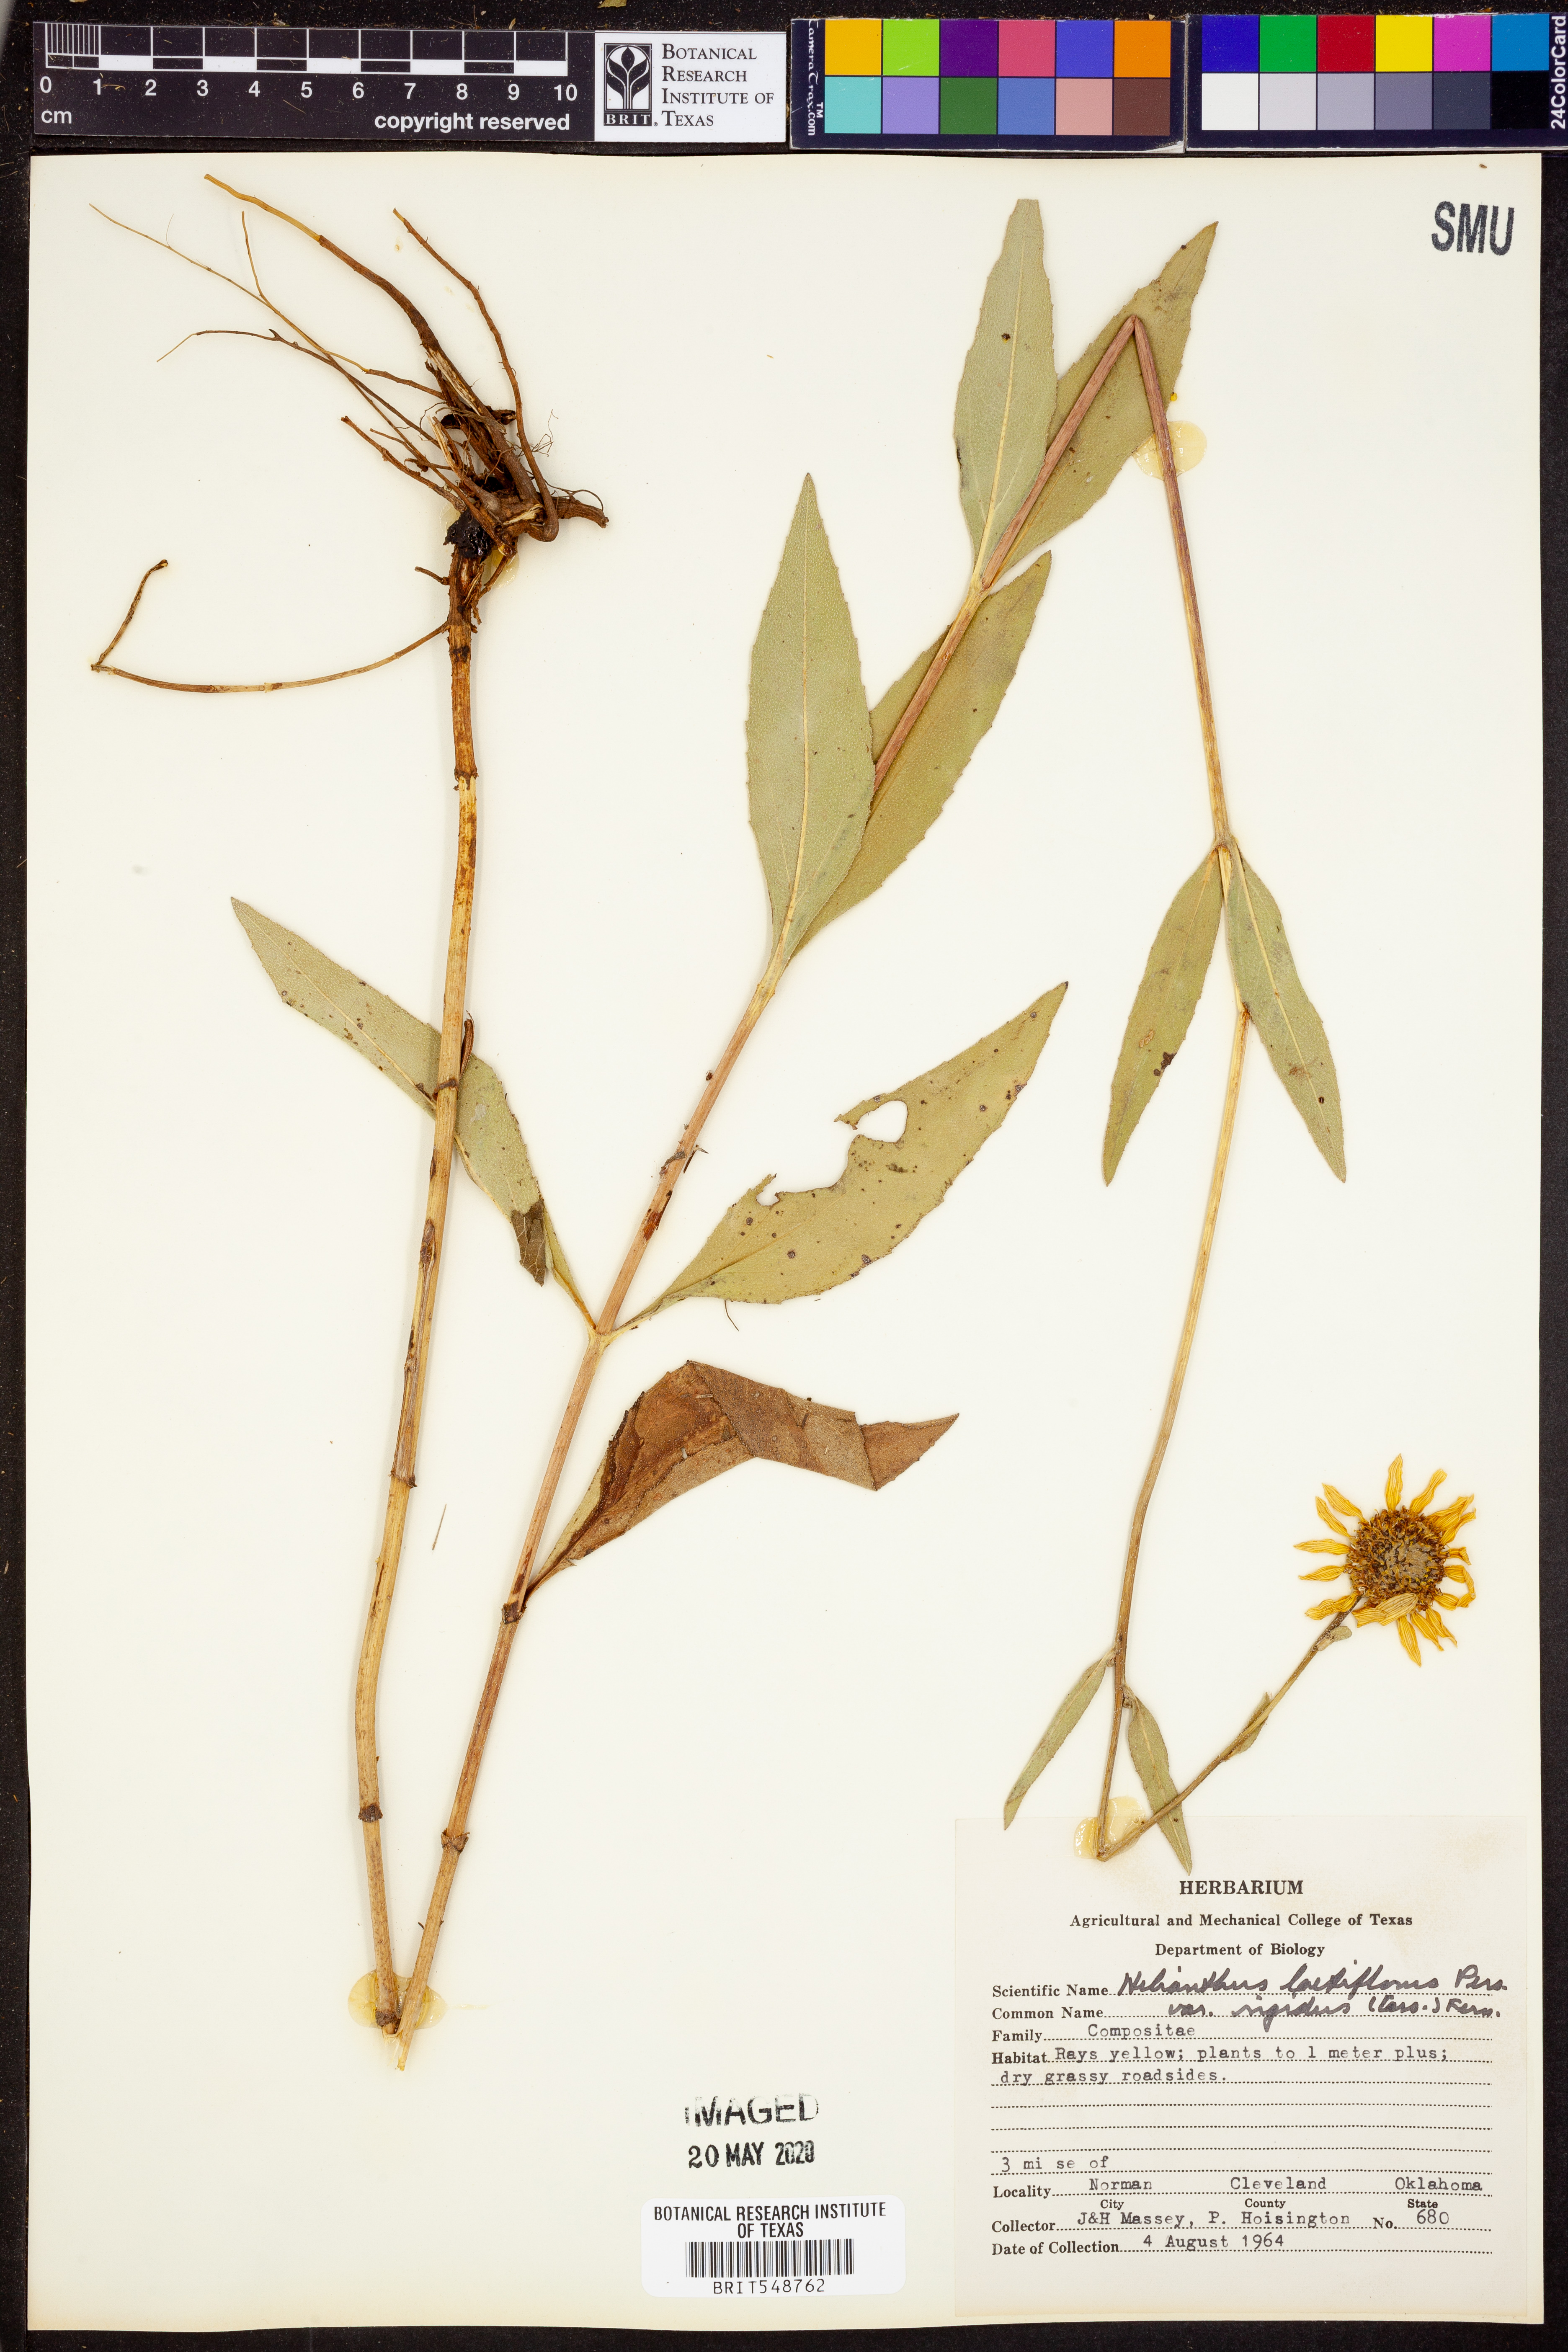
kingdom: Plantae
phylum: Tracheophyta
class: Magnoliopsida
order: Asterales
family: Asteraceae
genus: Helianthus
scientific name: Helianthus pauciflorus
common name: Stiff sunflower
